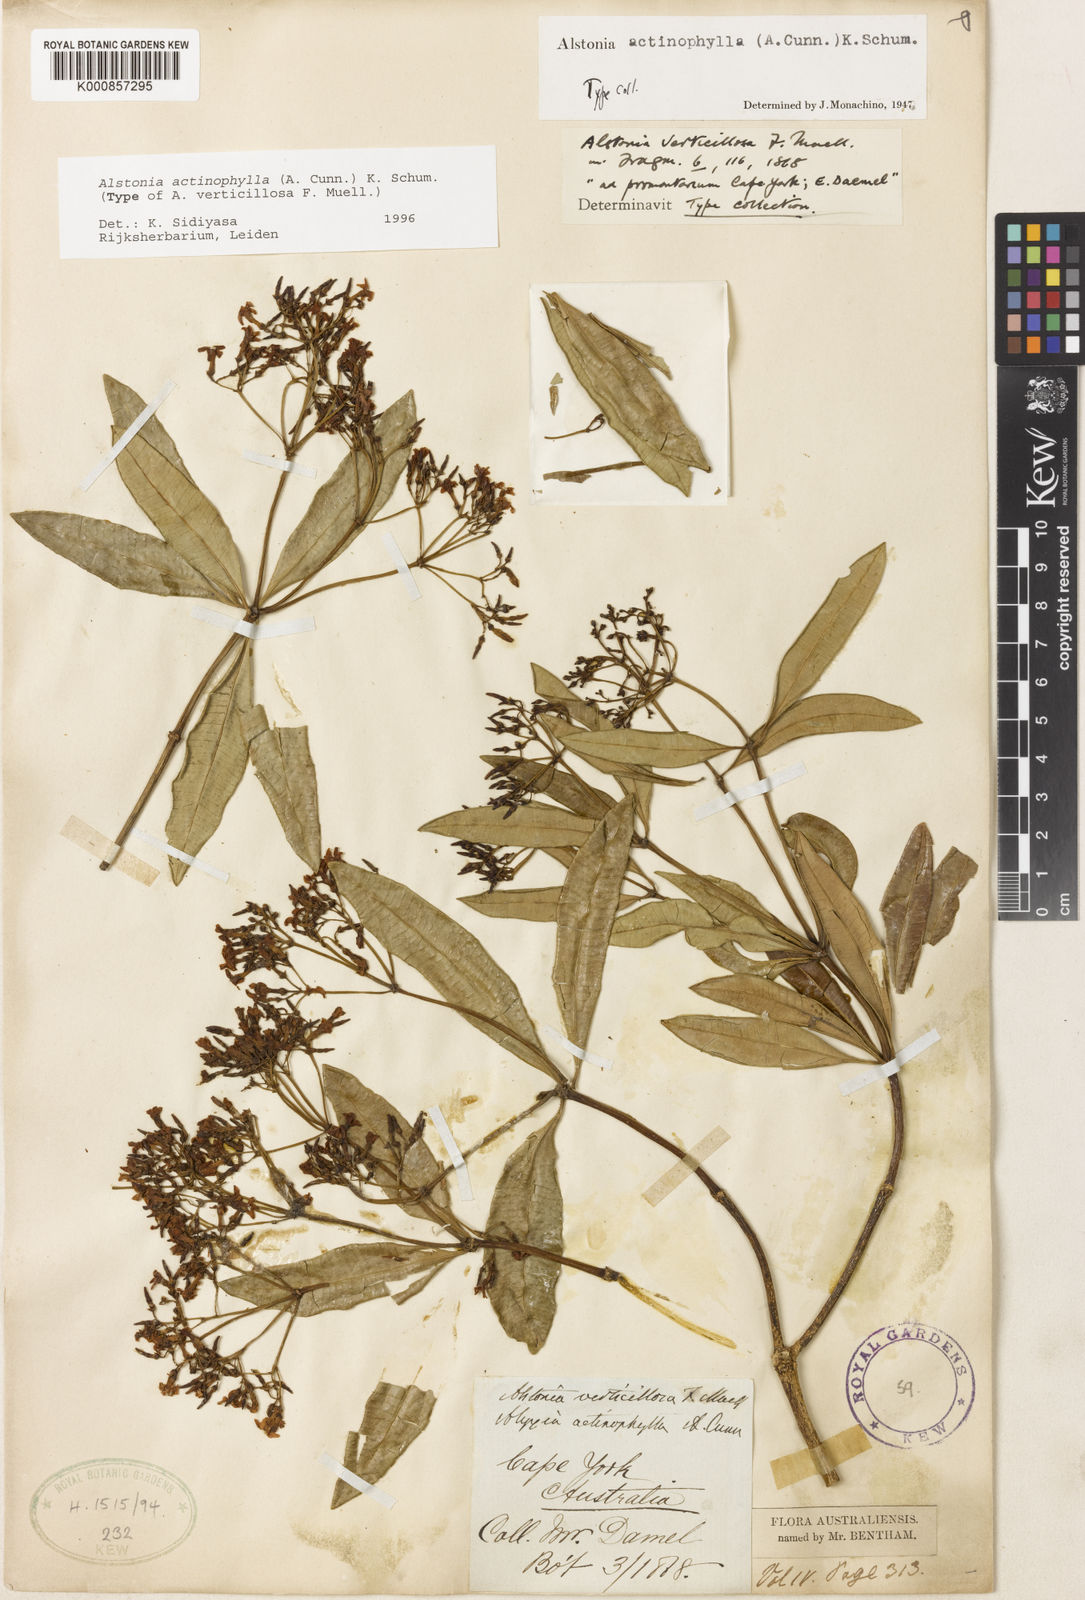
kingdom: Plantae
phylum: Tracheophyta
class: Magnoliopsida
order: Gentianales
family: Apocynaceae
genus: Alstonia
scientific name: Alstonia actinophylla
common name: Milkwood
